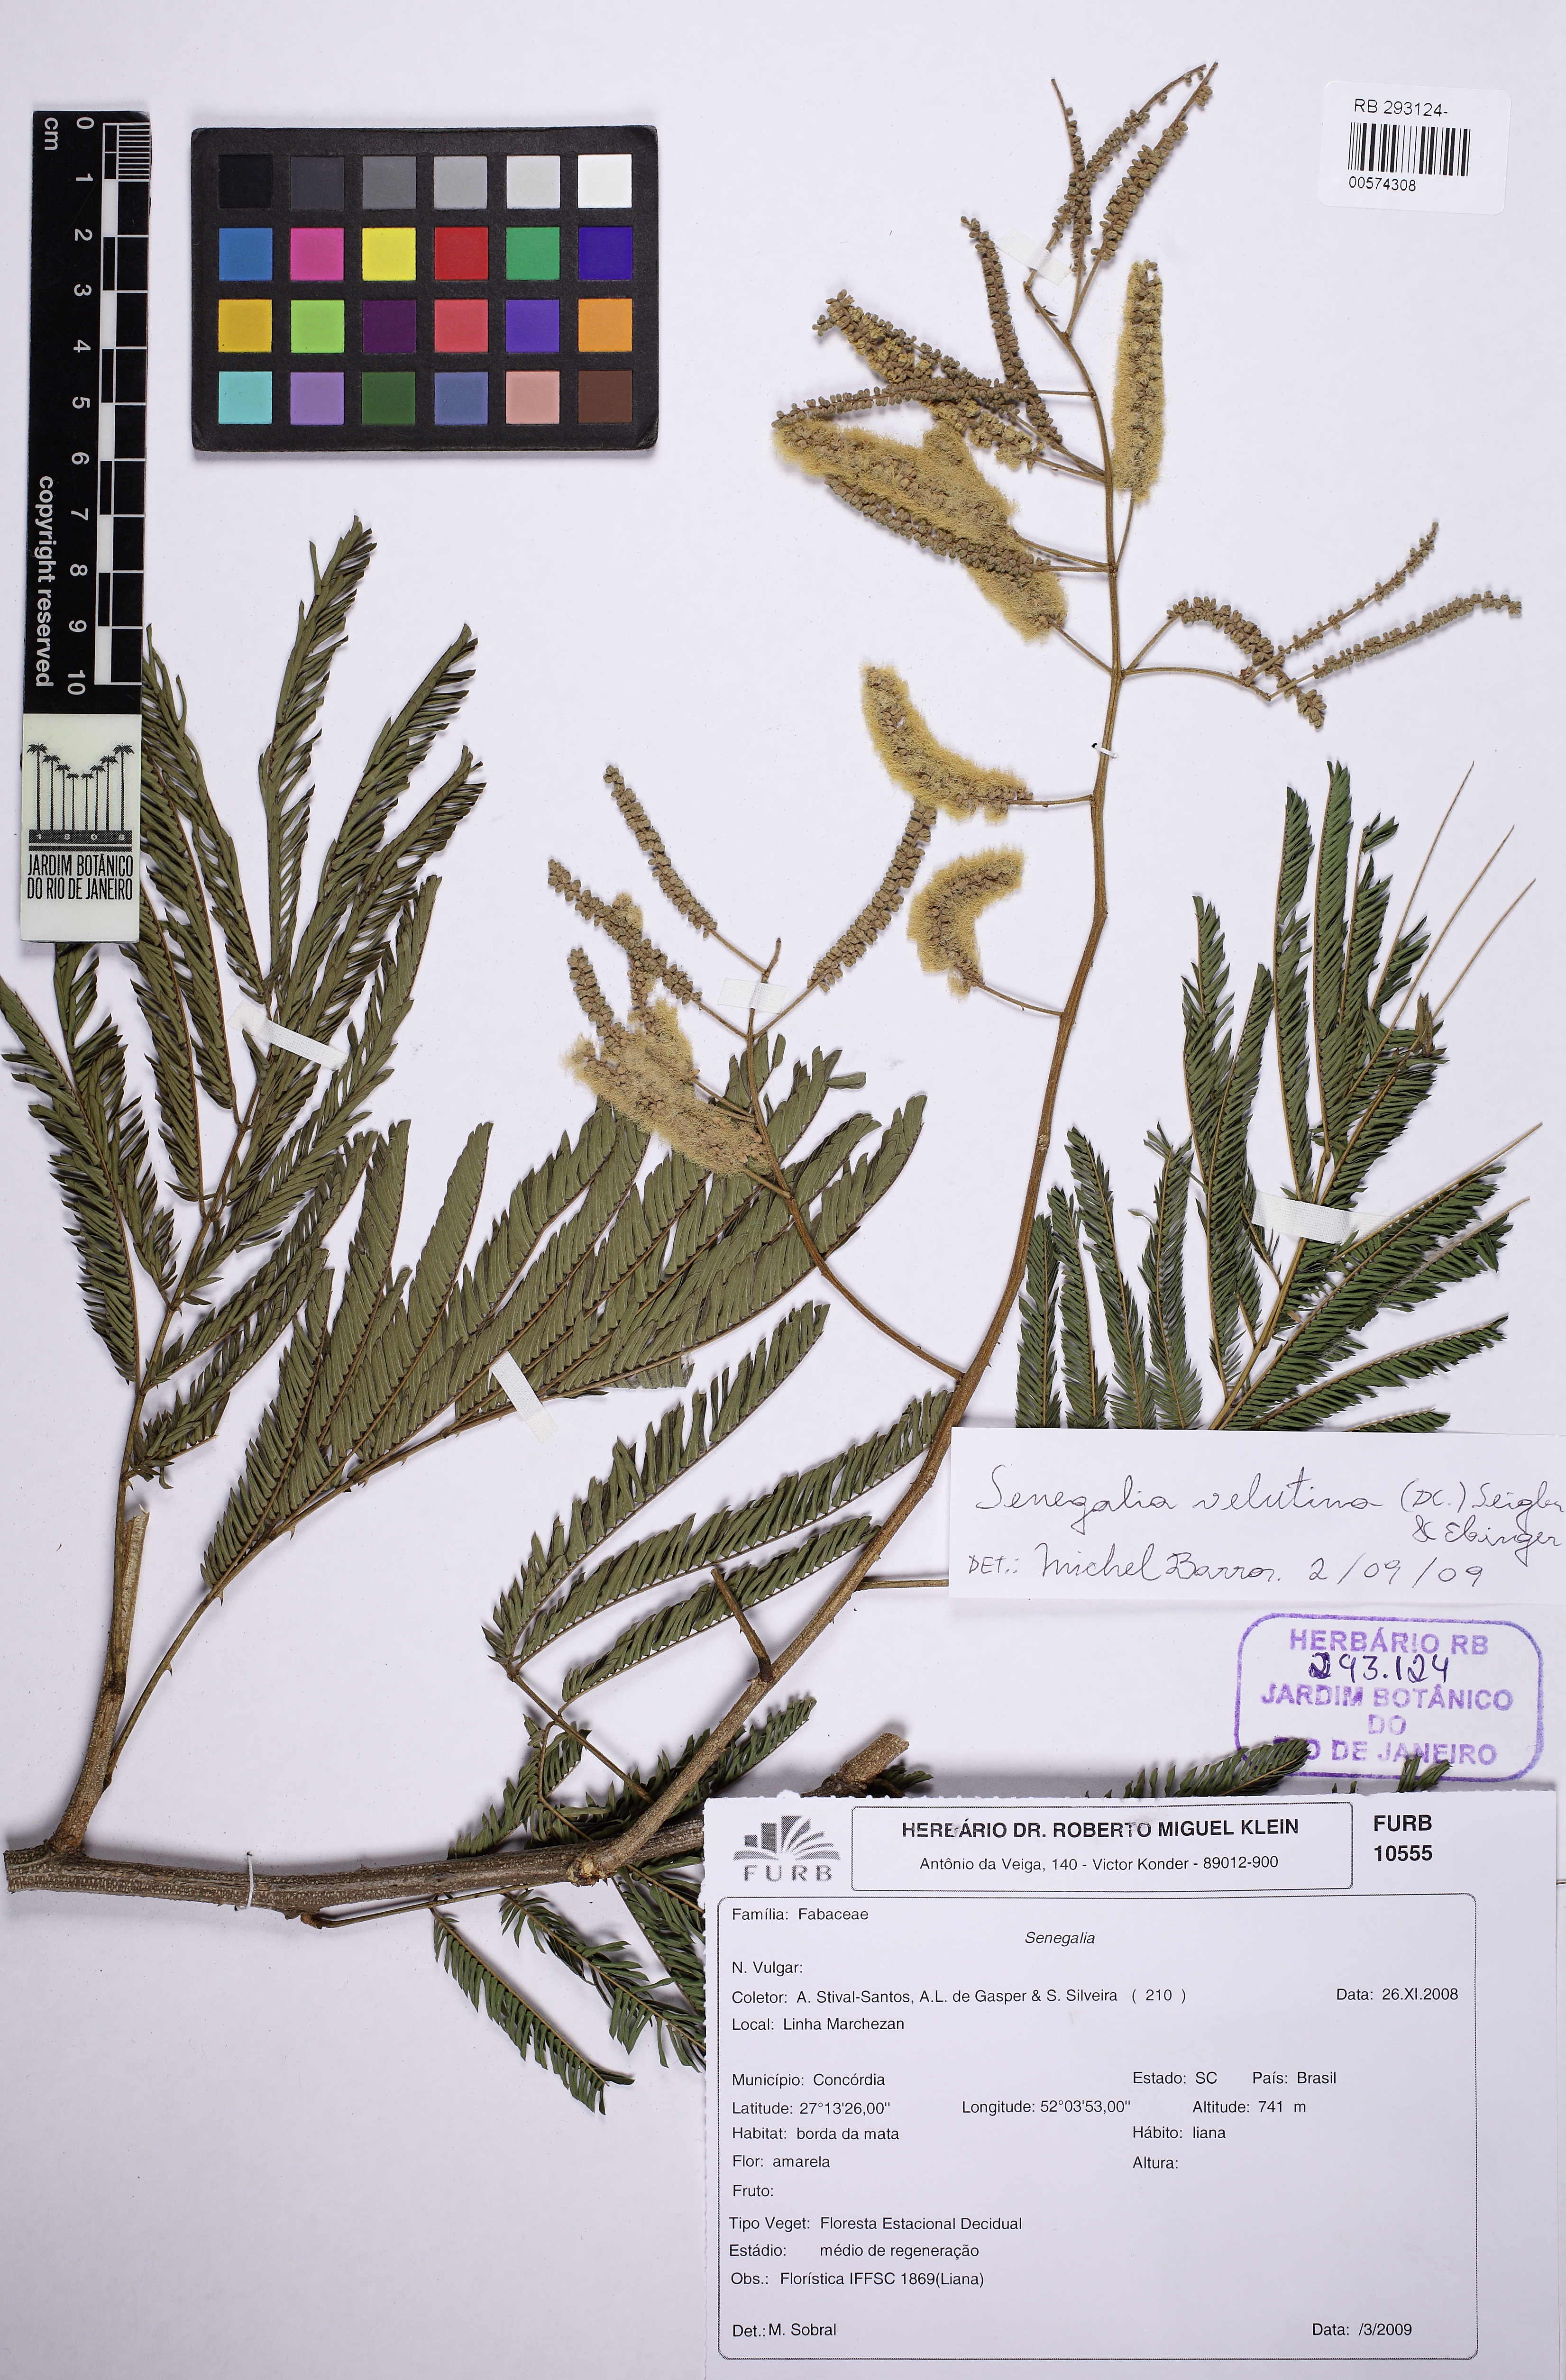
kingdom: Plantae
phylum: Tracheophyta
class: Magnoliopsida
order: Fabales
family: Fabaceae
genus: Senegalia
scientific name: Senegalia velutina
